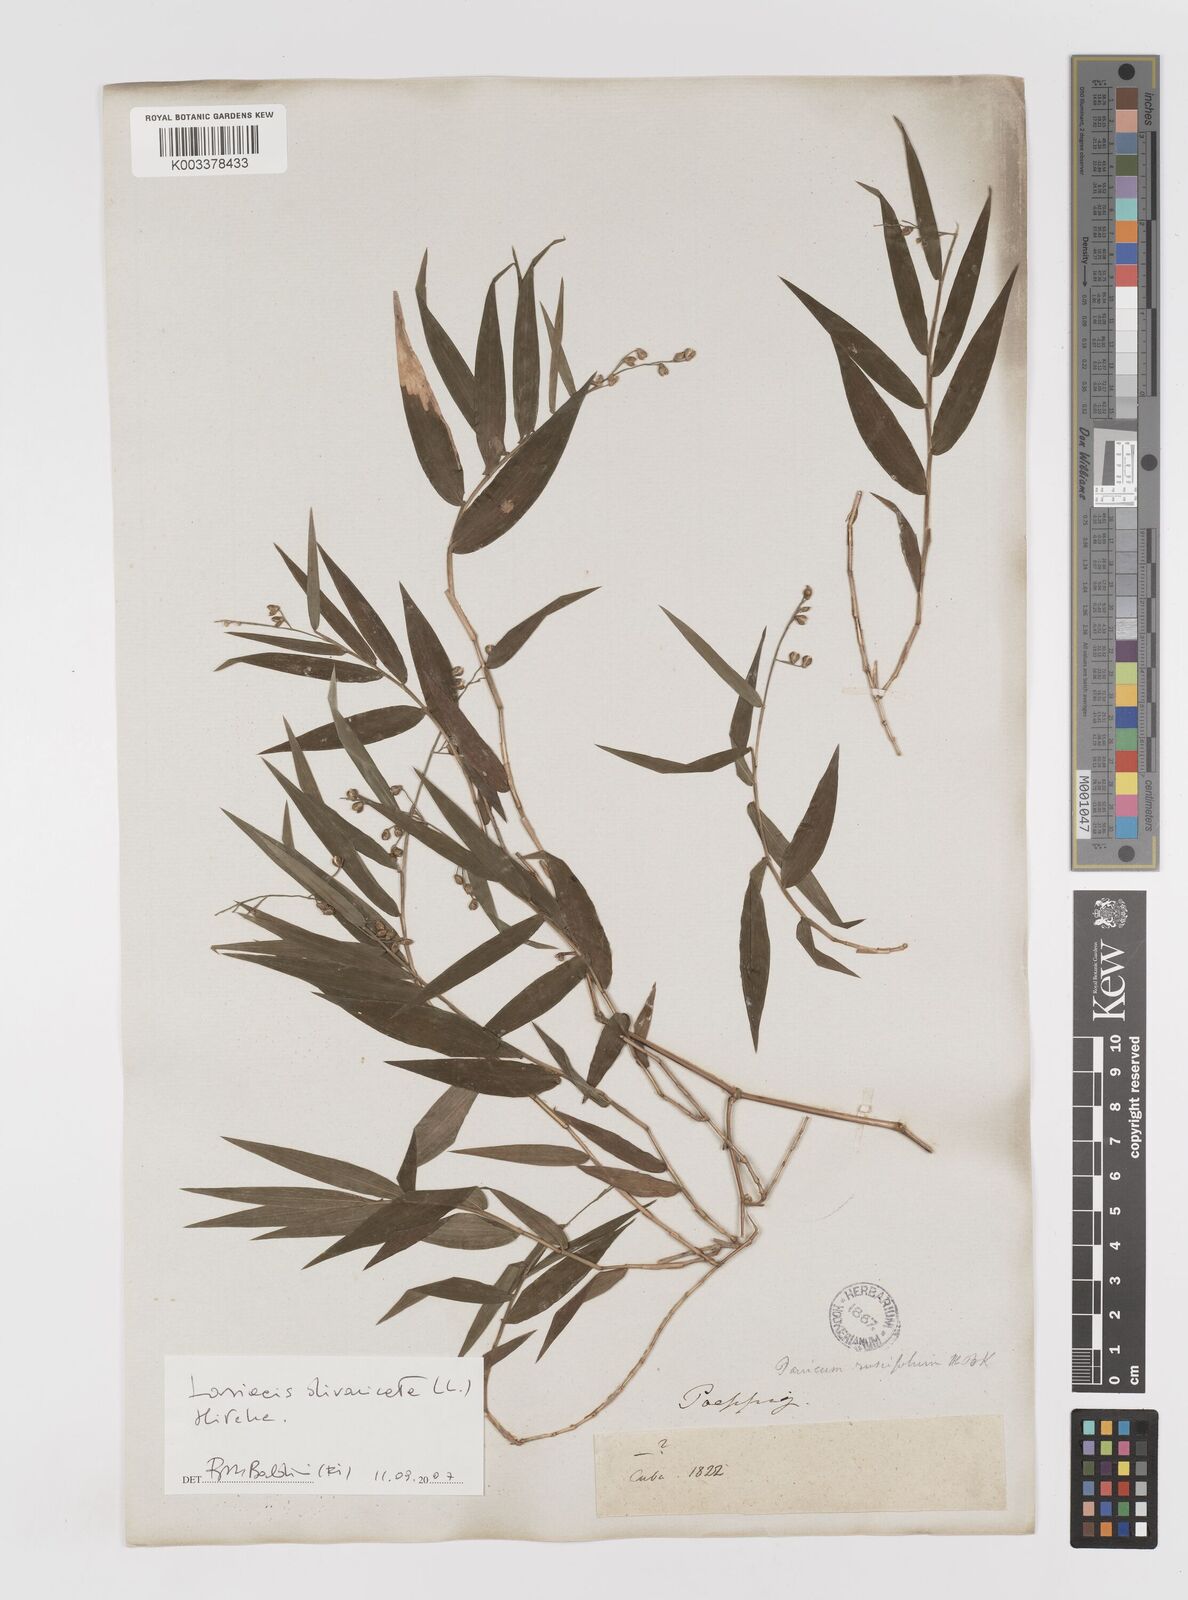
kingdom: Plantae
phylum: Tracheophyta
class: Liliopsida
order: Poales
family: Poaceae
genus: Lasiacis
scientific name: Lasiacis divaricata
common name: Smallcane
